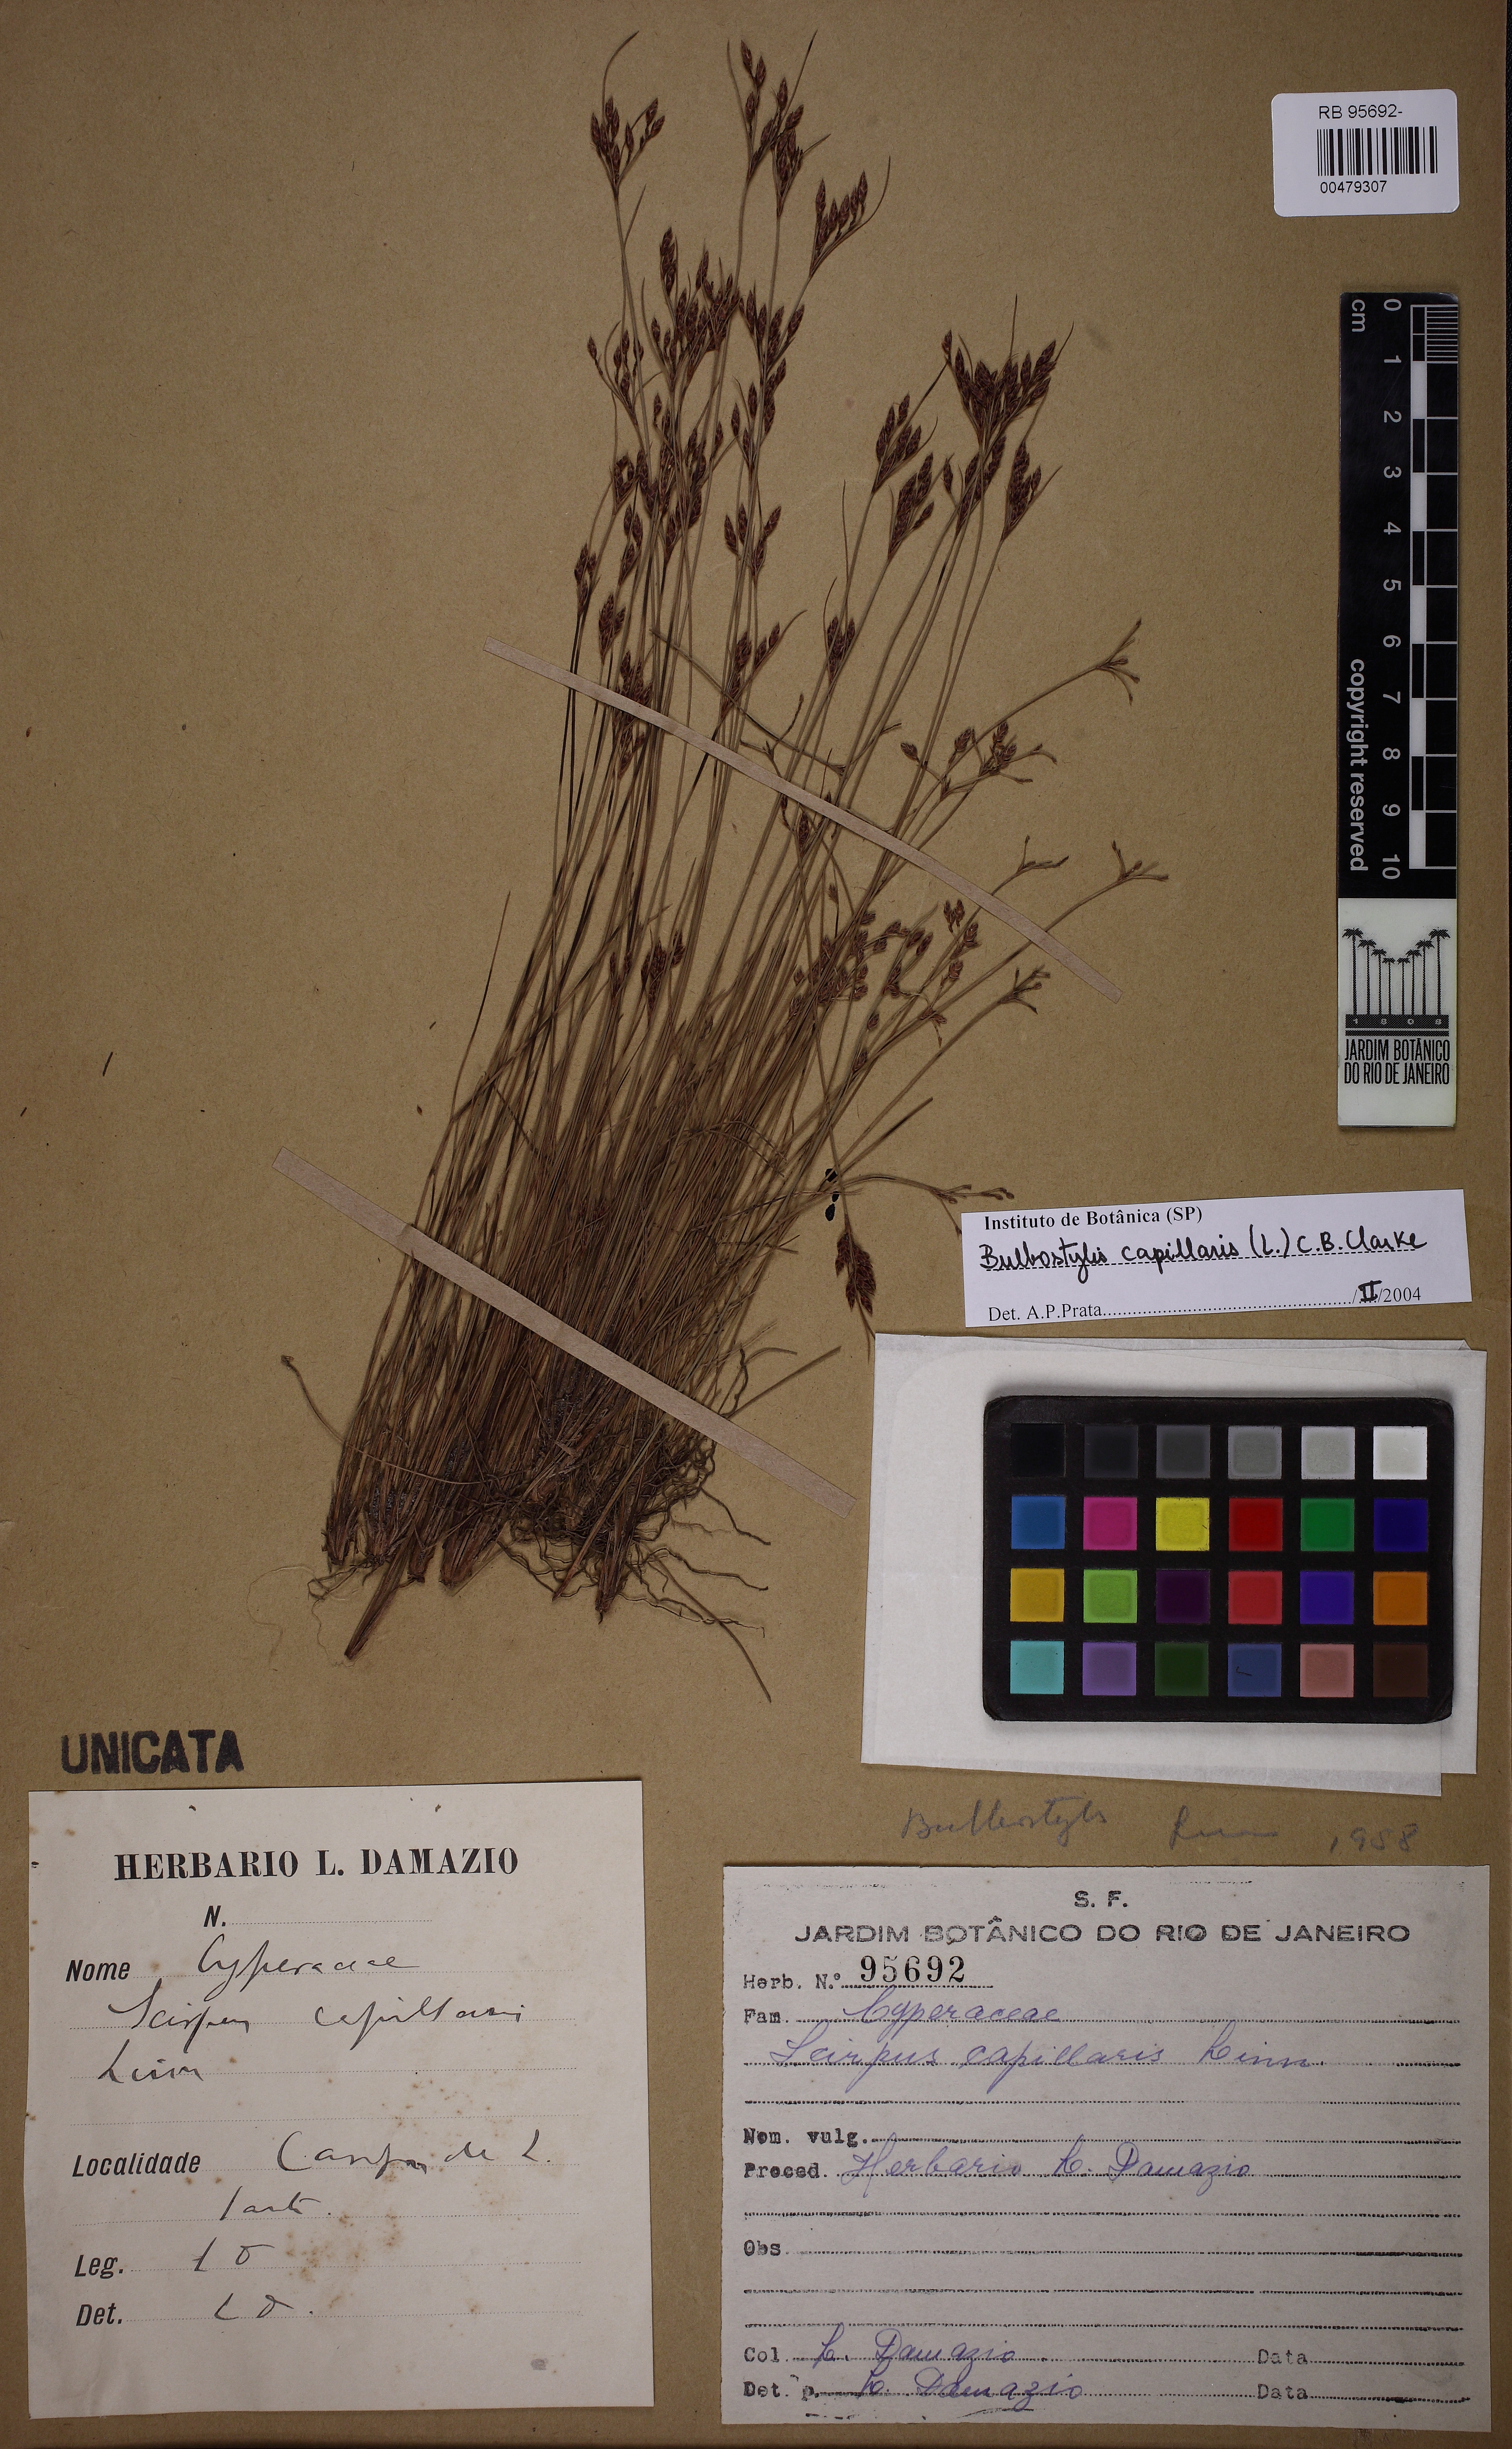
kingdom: Plantae
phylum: Tracheophyta
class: Liliopsida
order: Poales
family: Cyperaceae
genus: Bulbostylis
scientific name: Bulbostylis capillaris
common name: Densetuft hairsedge
